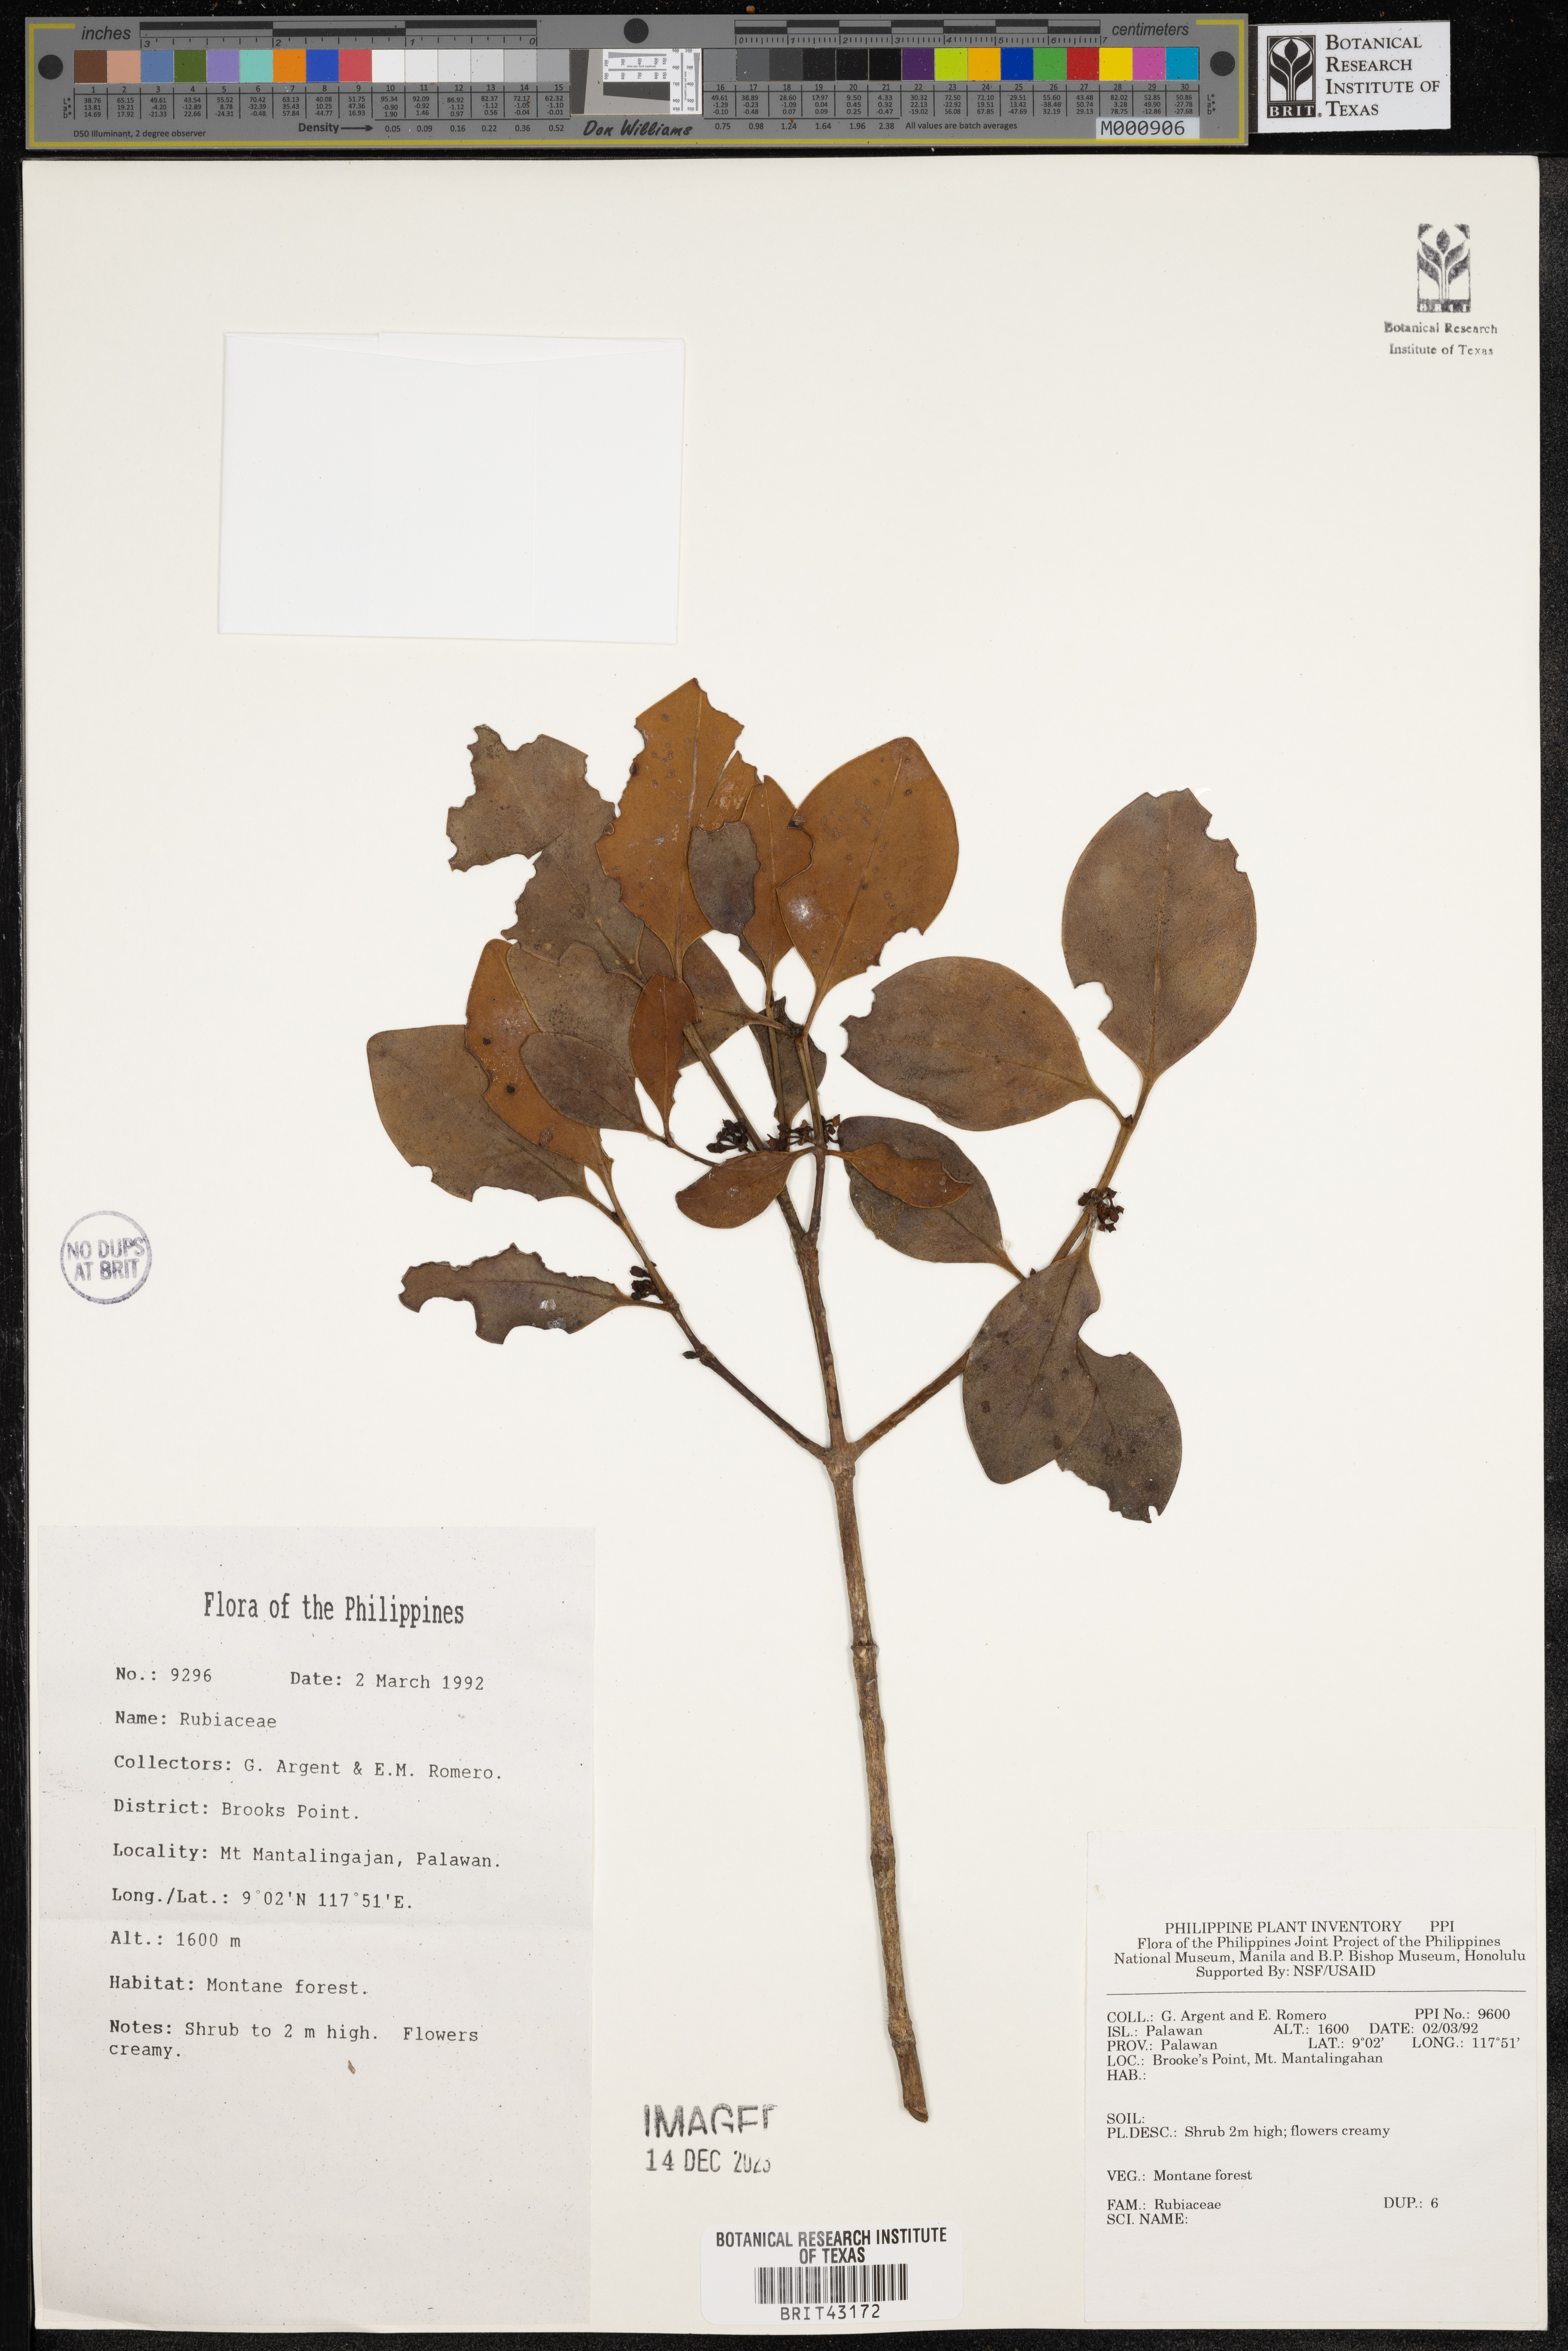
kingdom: Plantae
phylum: Tracheophyta
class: Magnoliopsida
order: Gentianales
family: Rubiaceae
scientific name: Rubiaceae
